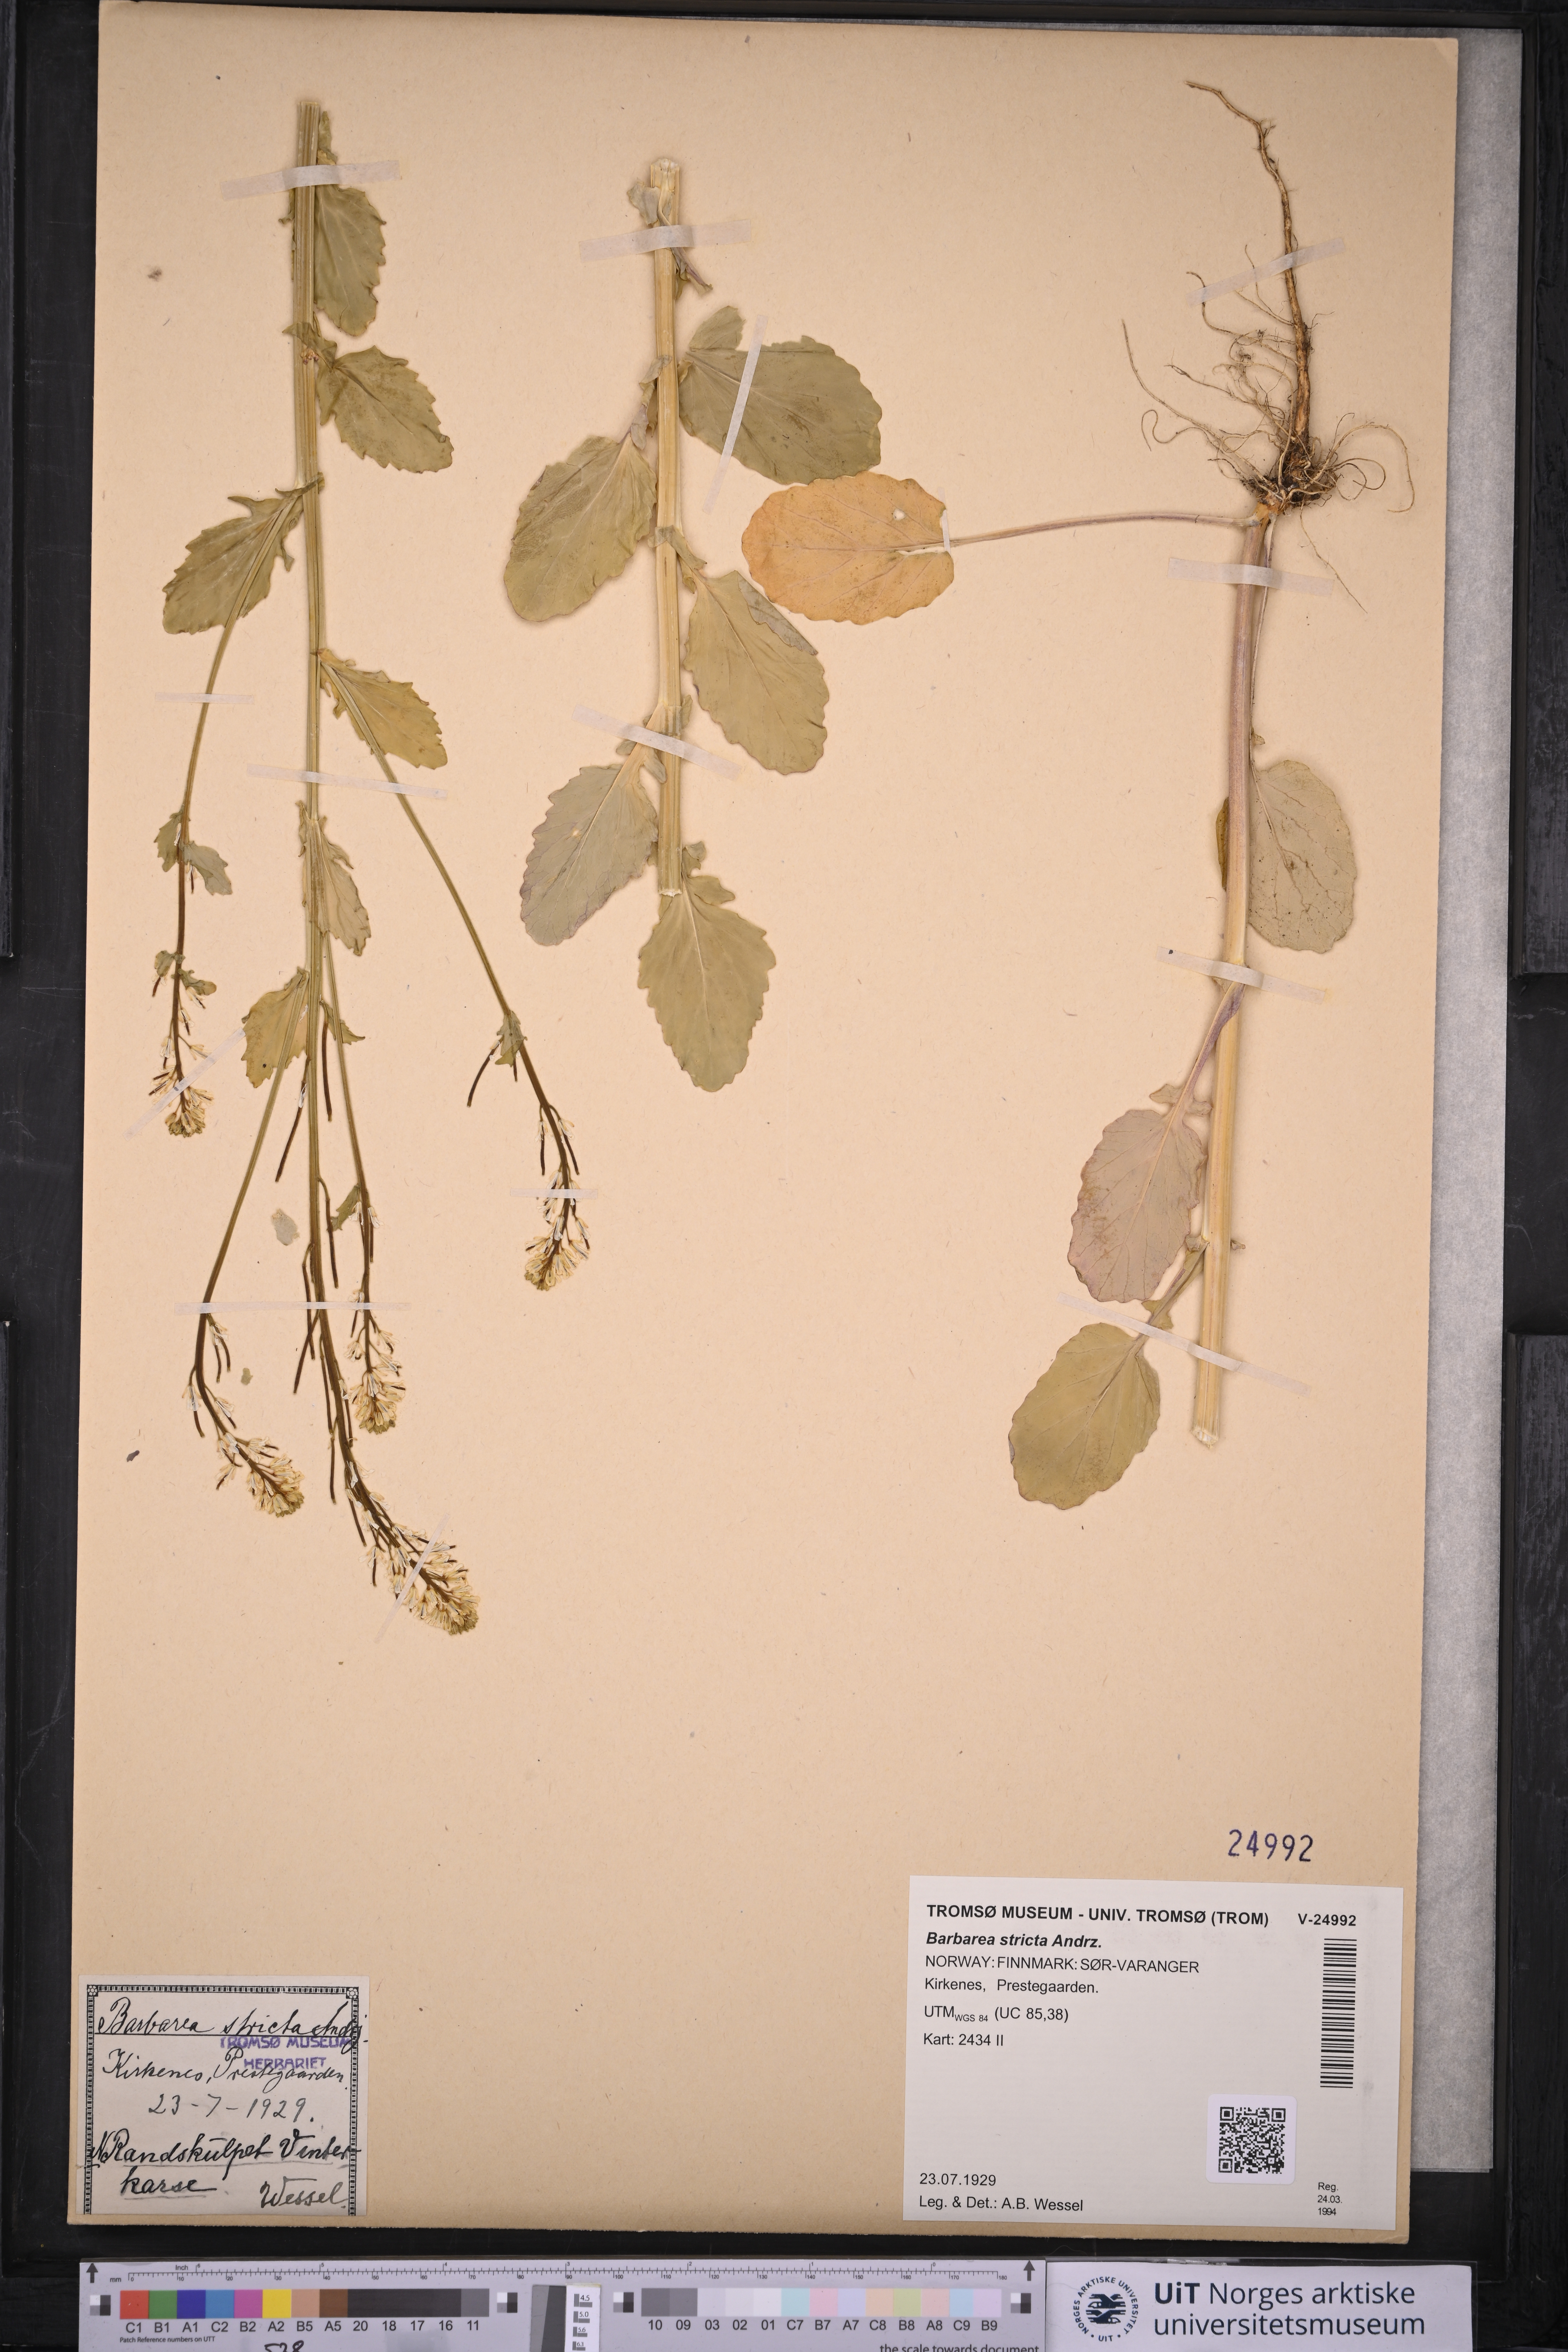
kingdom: Plantae
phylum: Tracheophyta
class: Magnoliopsida
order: Brassicales
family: Brassicaceae
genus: Barbarea
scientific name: Barbarea stricta
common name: Small-flowered winter-cress
